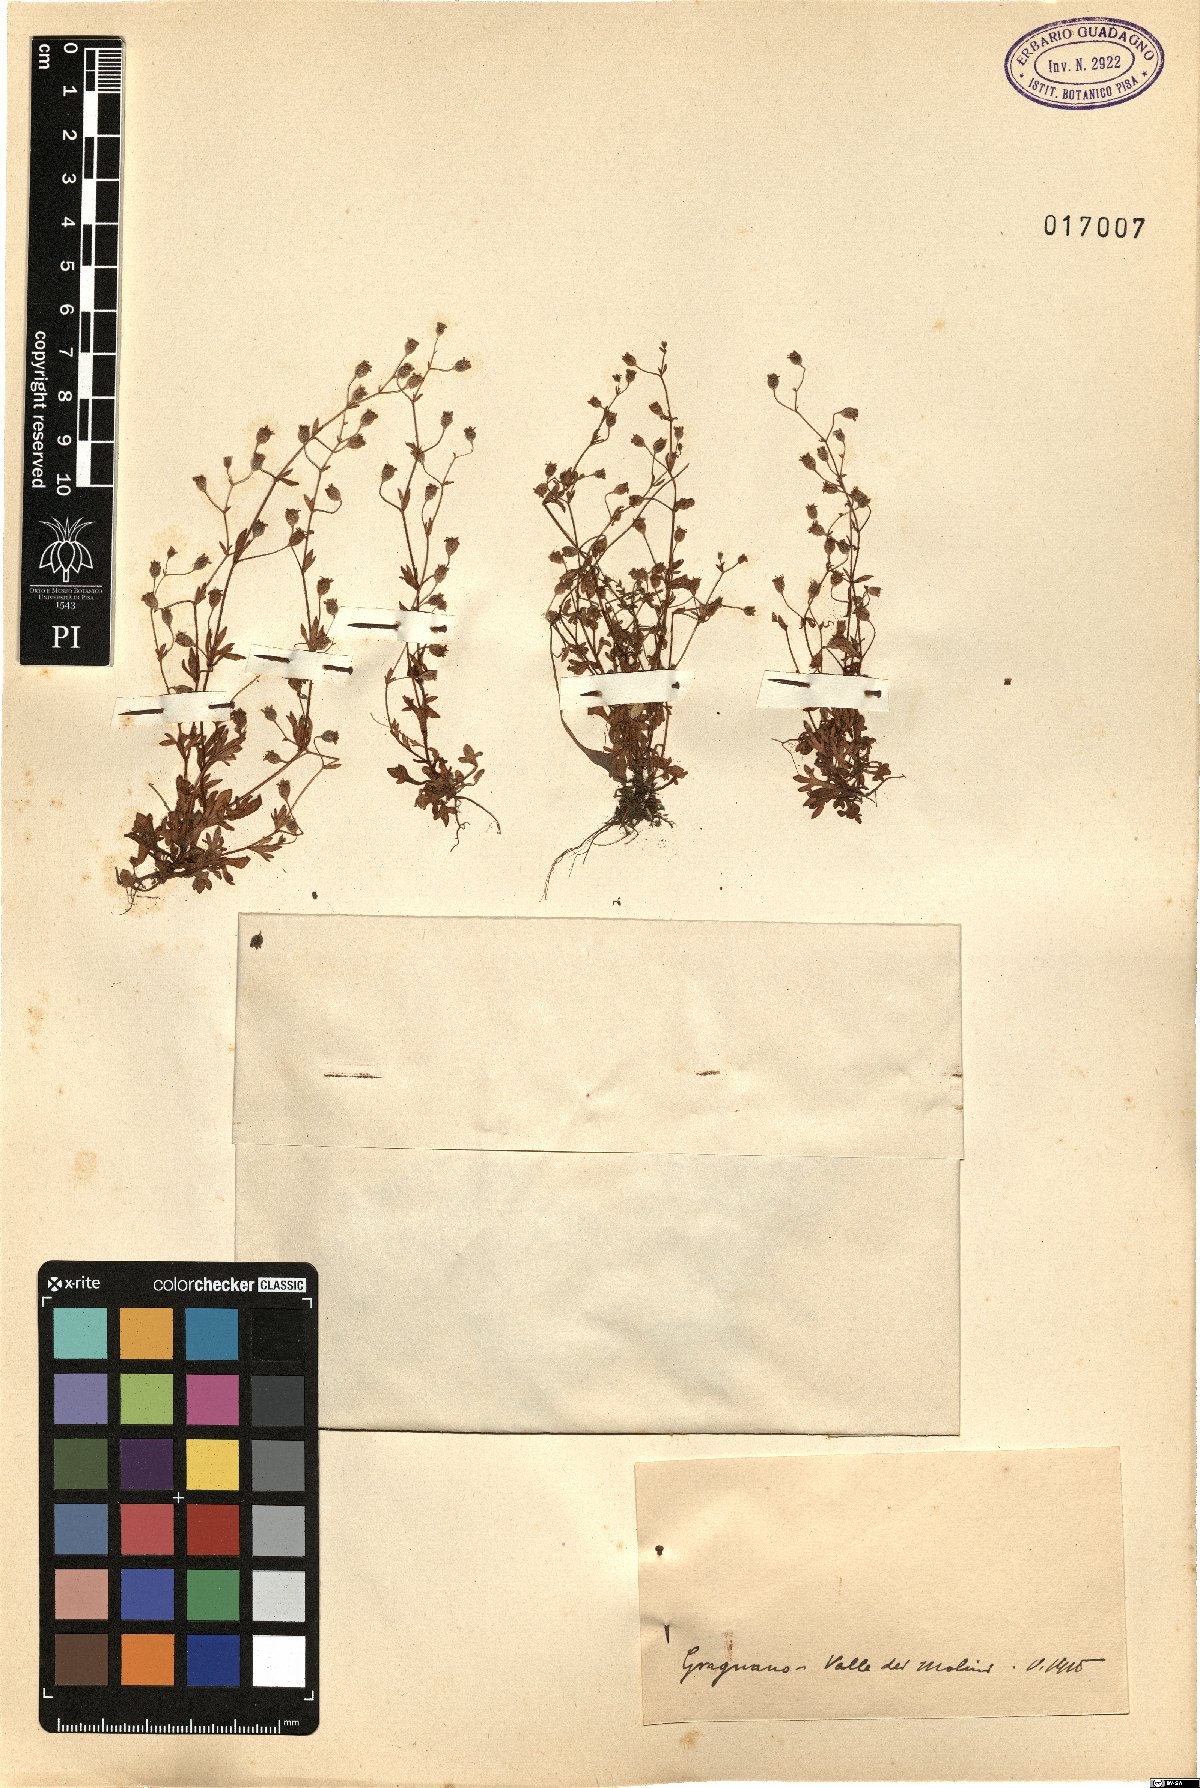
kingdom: Plantae
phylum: Tracheophyta
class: Magnoliopsida
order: Saxifragales
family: Saxifragaceae
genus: Saxifraga
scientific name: Saxifraga
